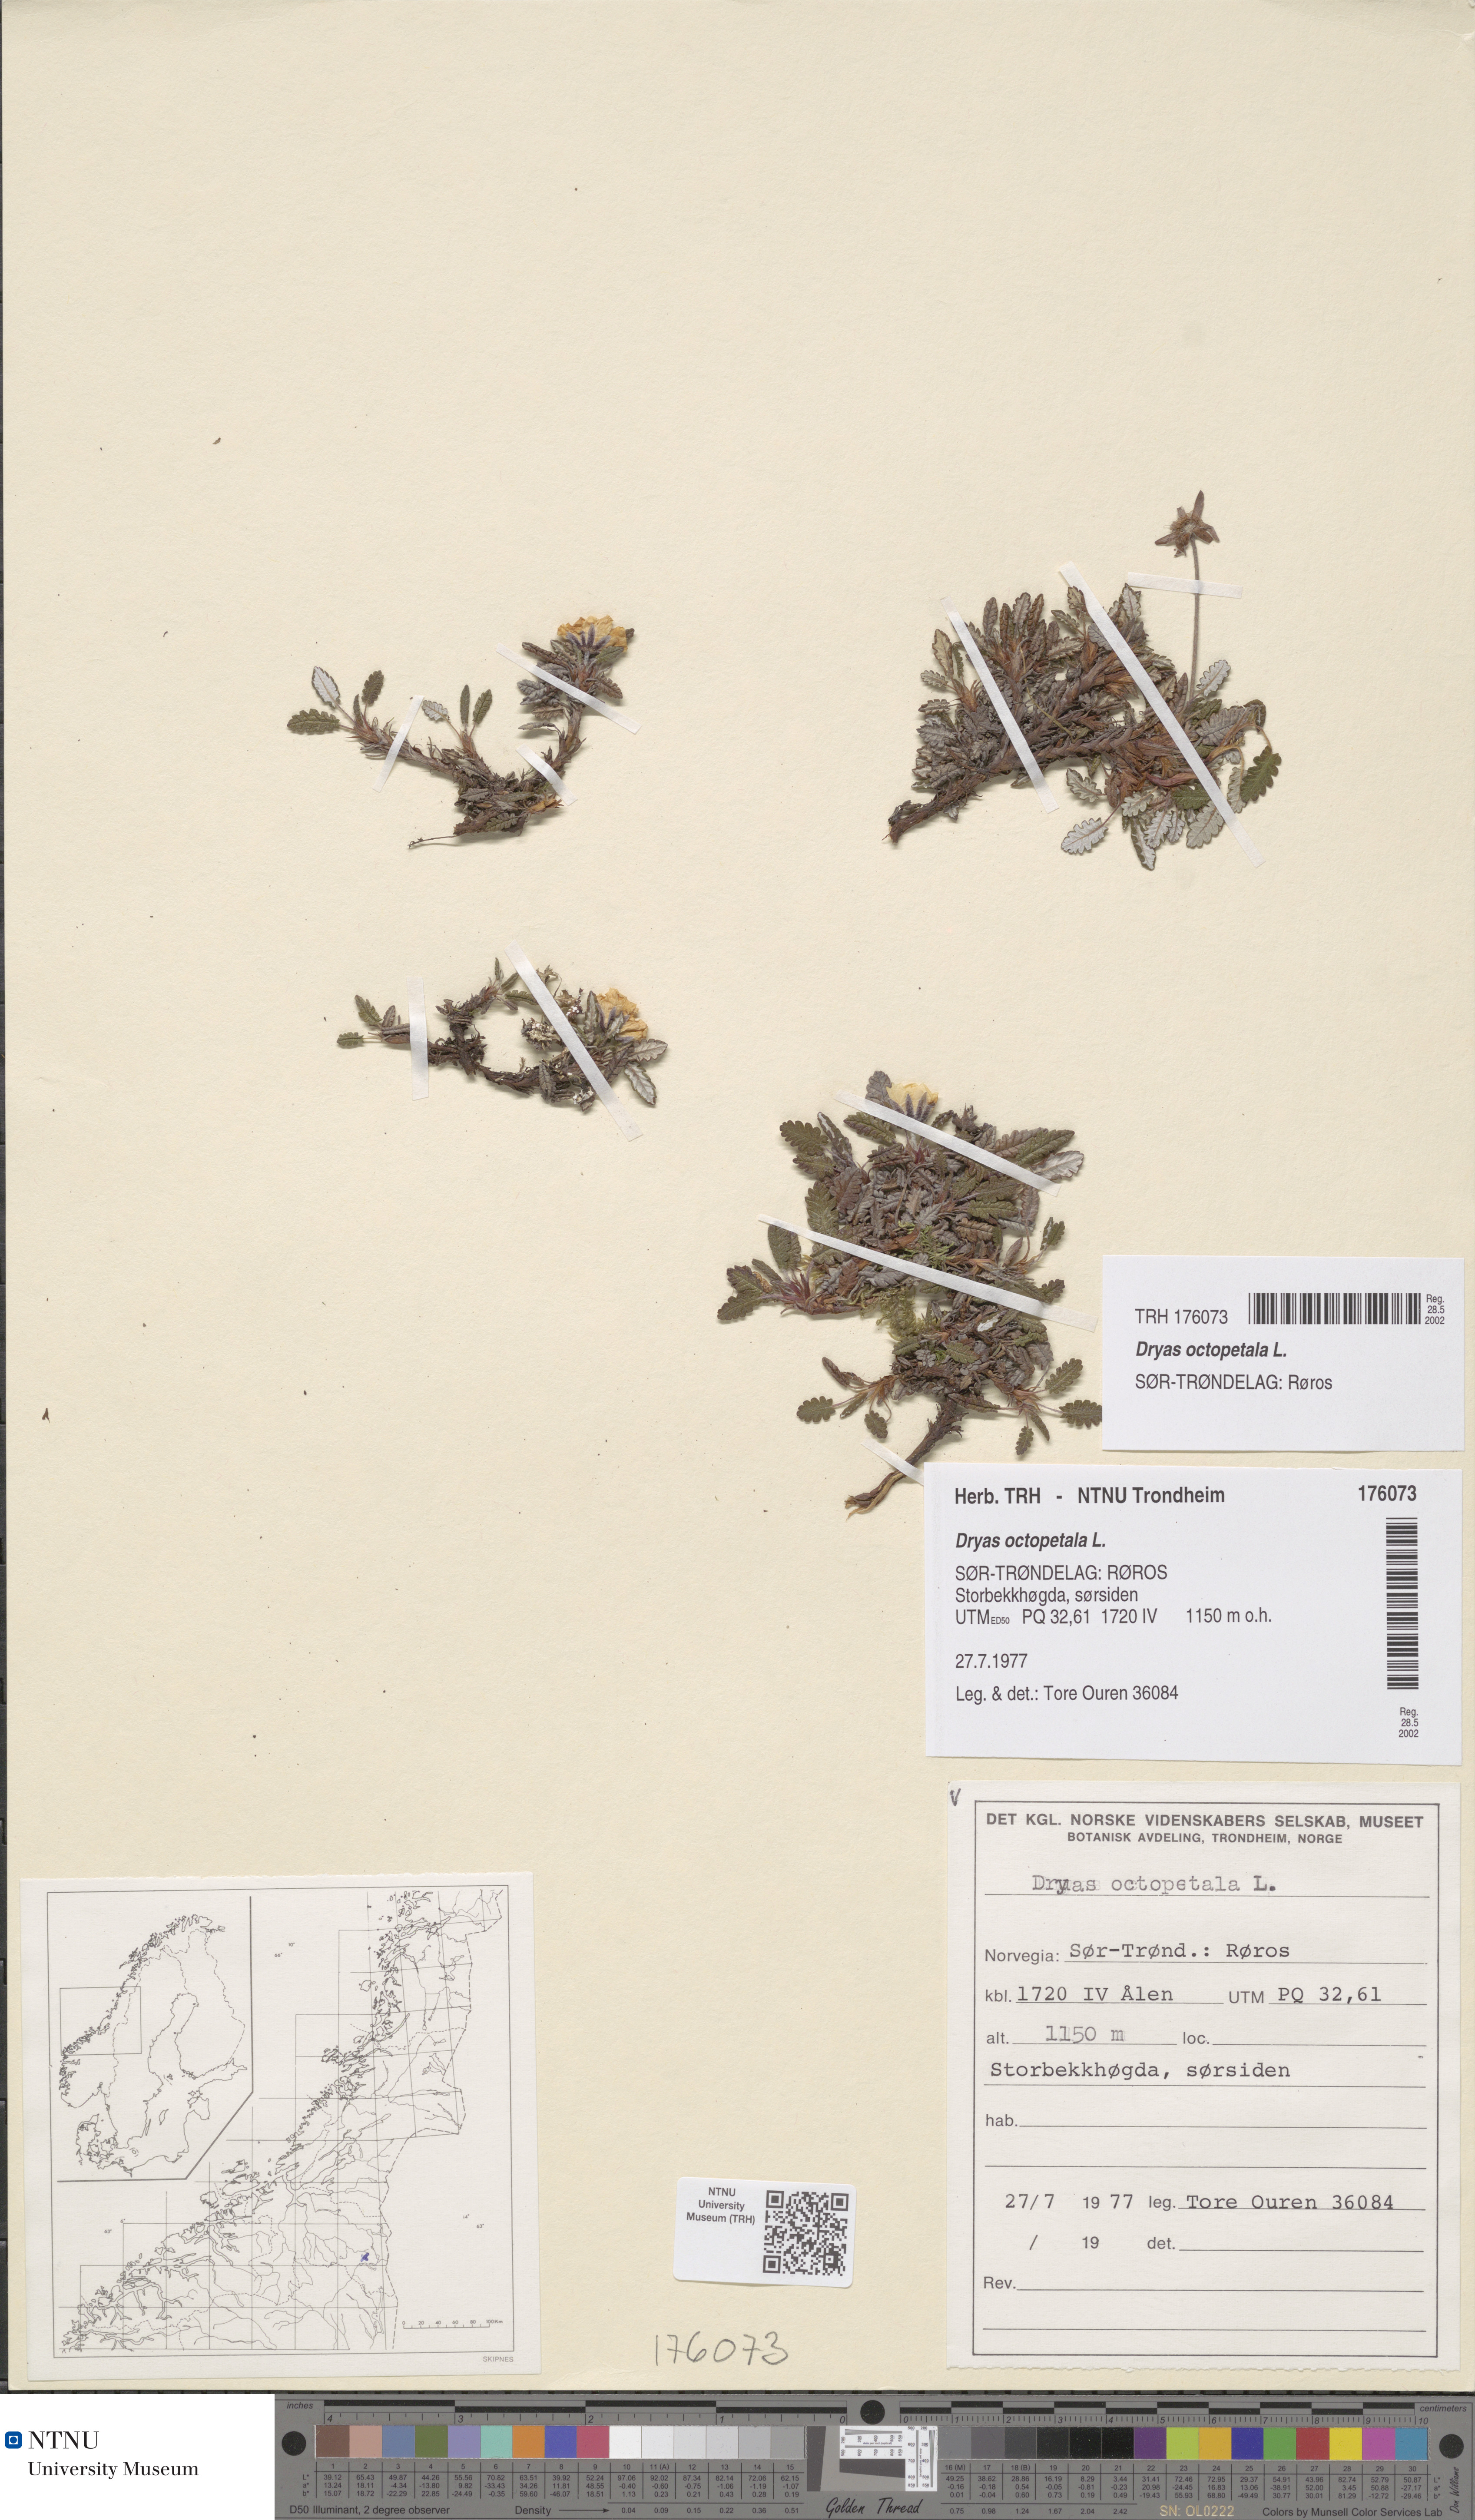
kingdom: Plantae
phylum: Tracheophyta
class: Magnoliopsida
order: Rosales
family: Rosaceae
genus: Dryas
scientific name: Dryas octopetala
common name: Eight-petal mountain-avens
